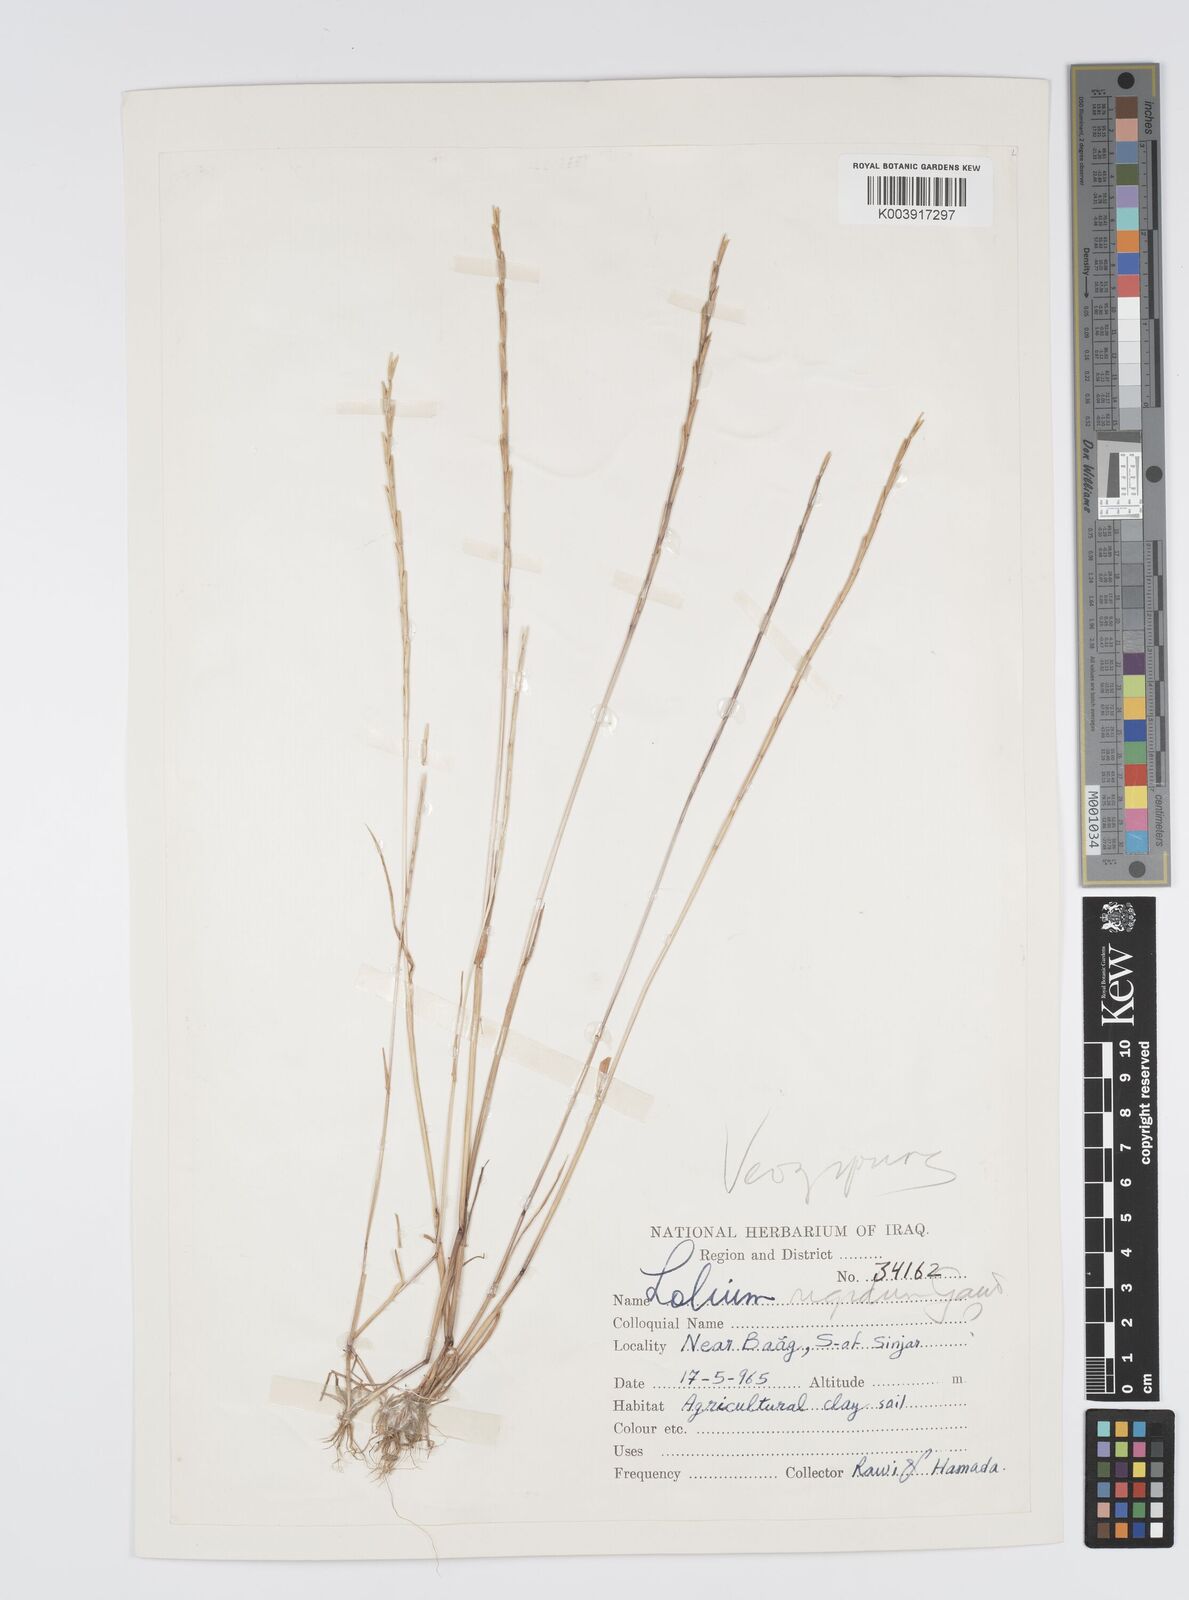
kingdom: Plantae
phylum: Tracheophyta
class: Liliopsida
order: Poales
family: Poaceae
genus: Lolium
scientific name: Lolium rigidum
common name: Wimmera ryegrass
